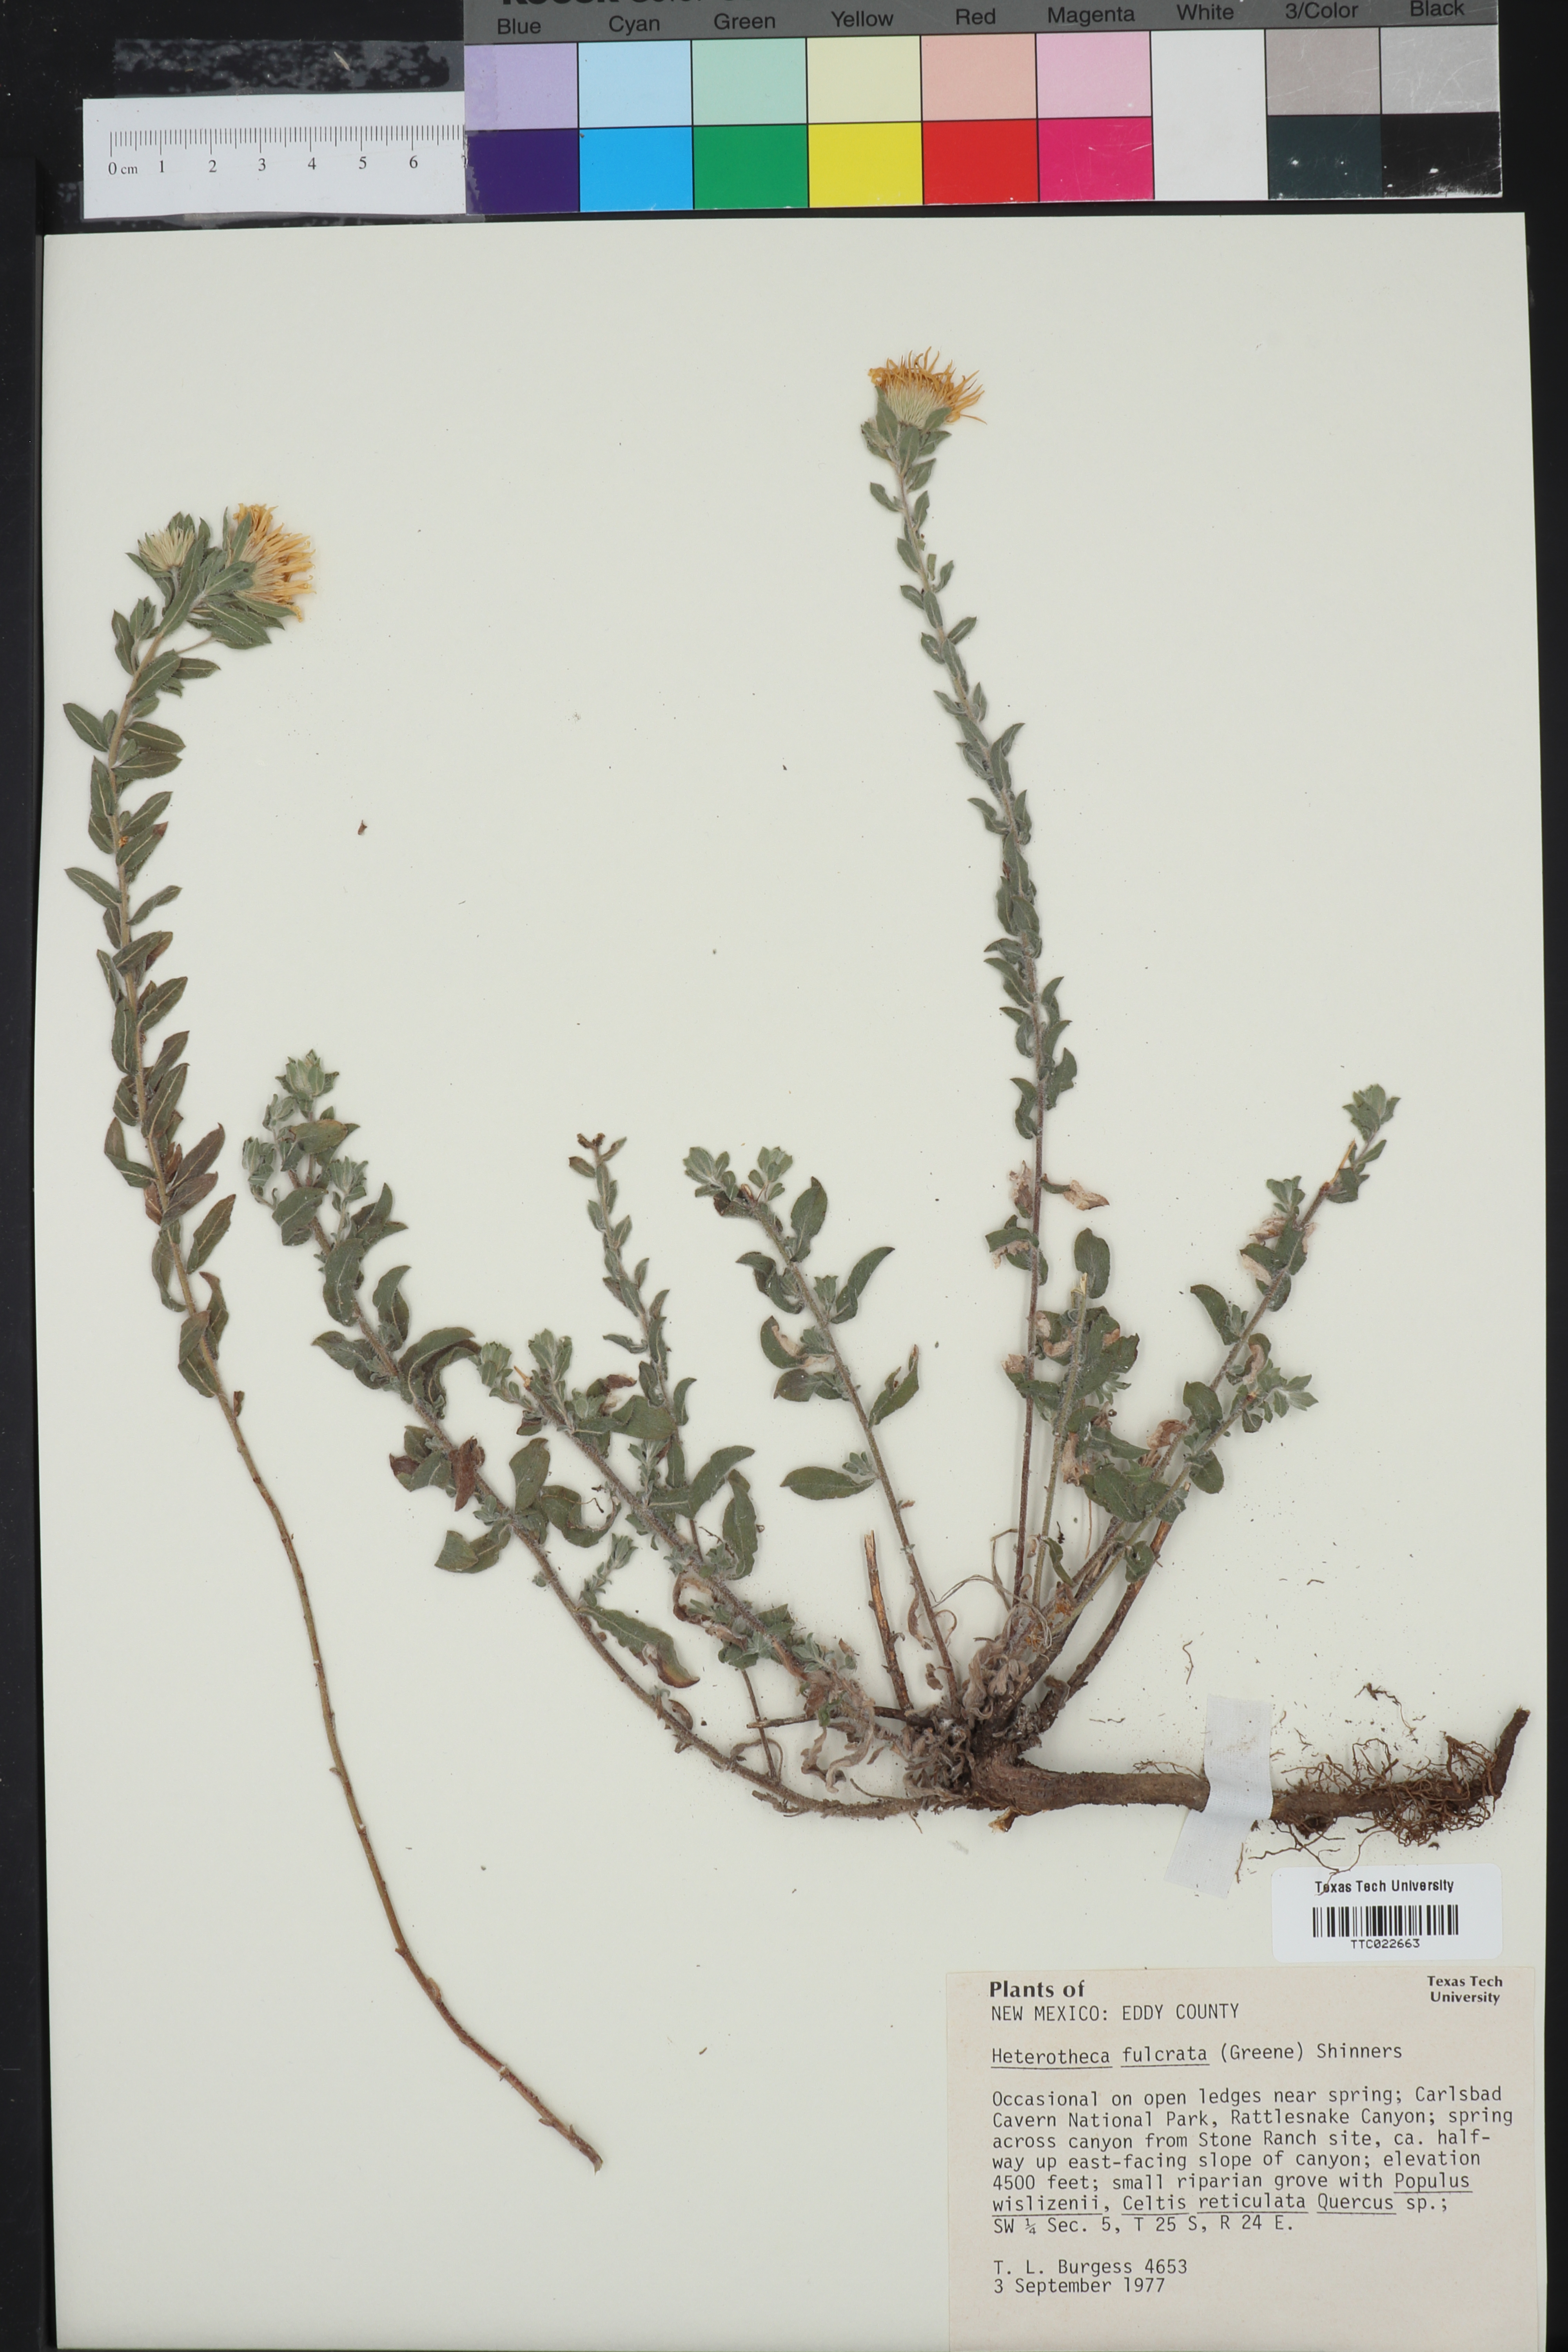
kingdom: Plantae
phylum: Tracheophyta
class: Magnoliopsida
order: Asterales
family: Asteraceae
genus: Heterotheca
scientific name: Heterotheca fulcrata
